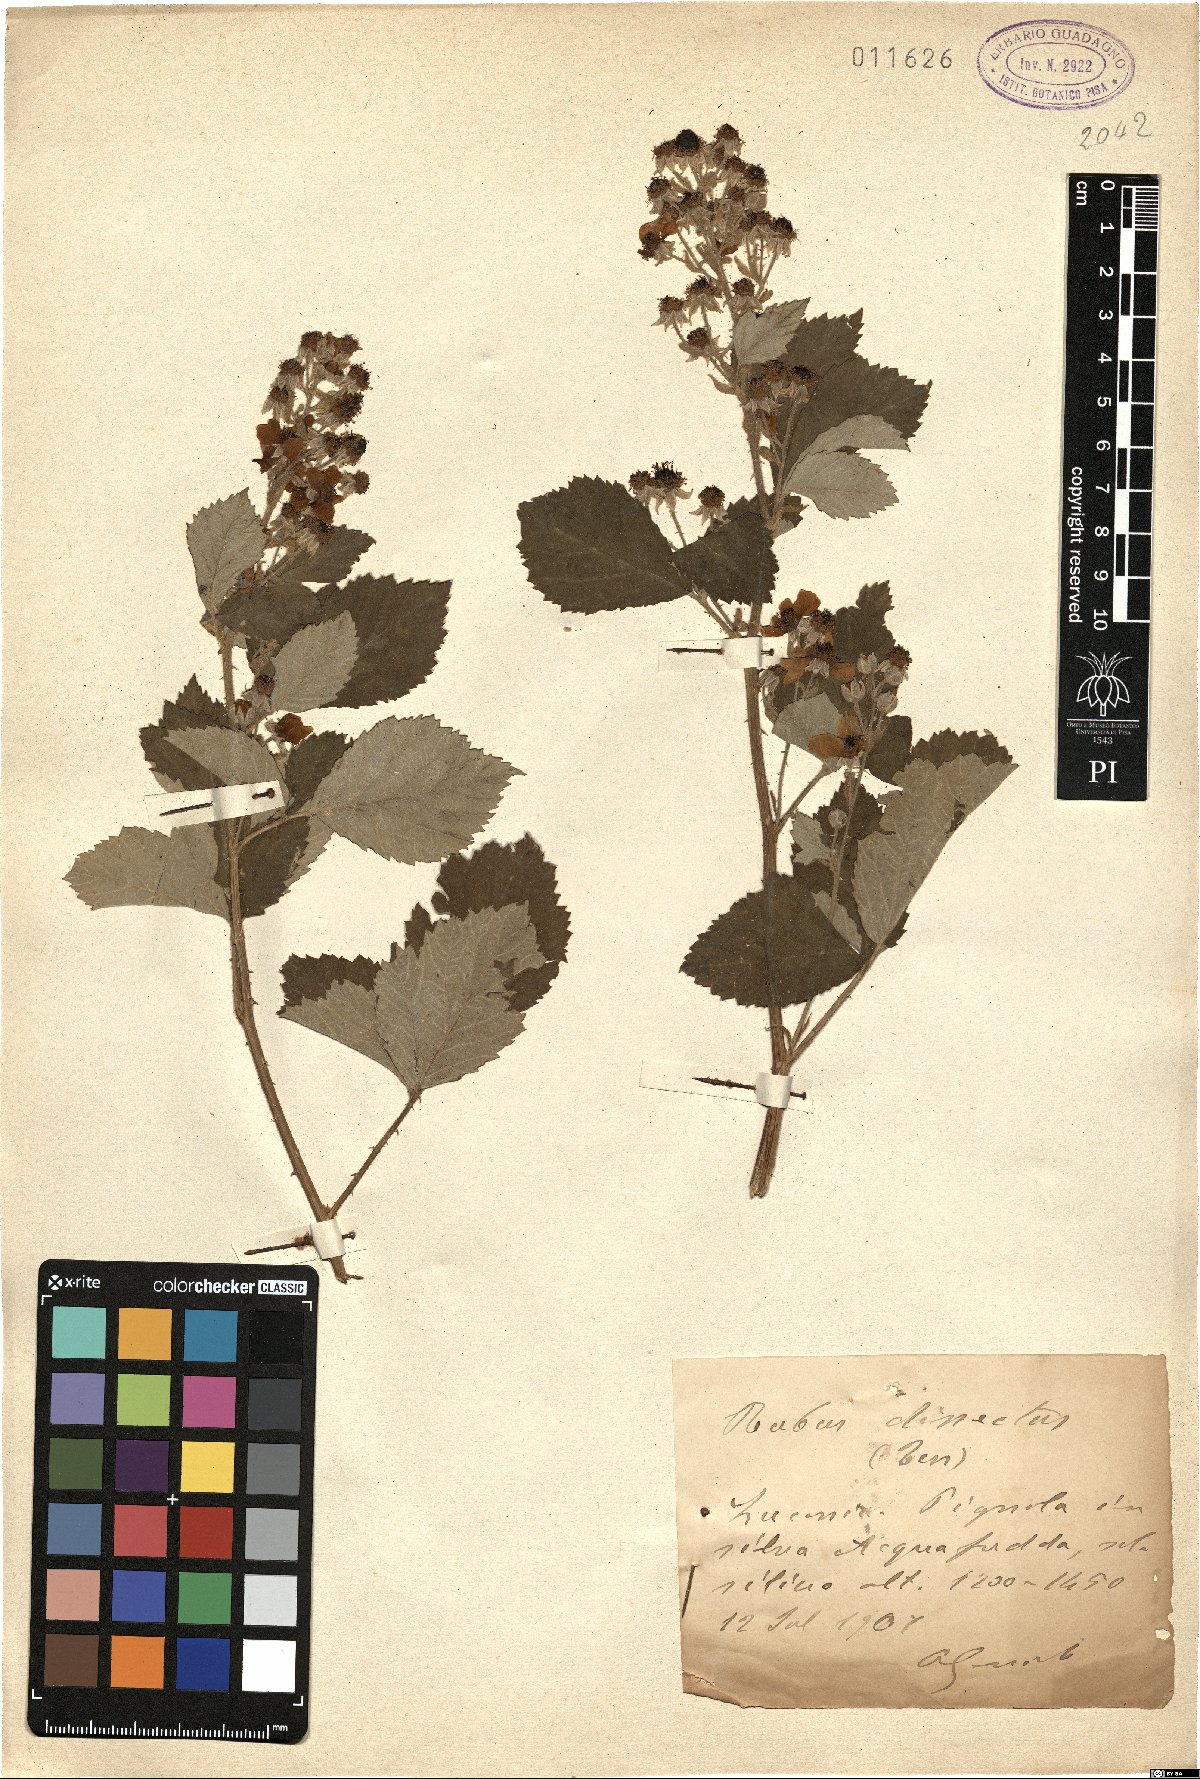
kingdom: Plantae
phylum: Tracheophyta
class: Magnoliopsida
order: Rosales
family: Rosaceae
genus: Rubus
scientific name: Rubus dissectus
